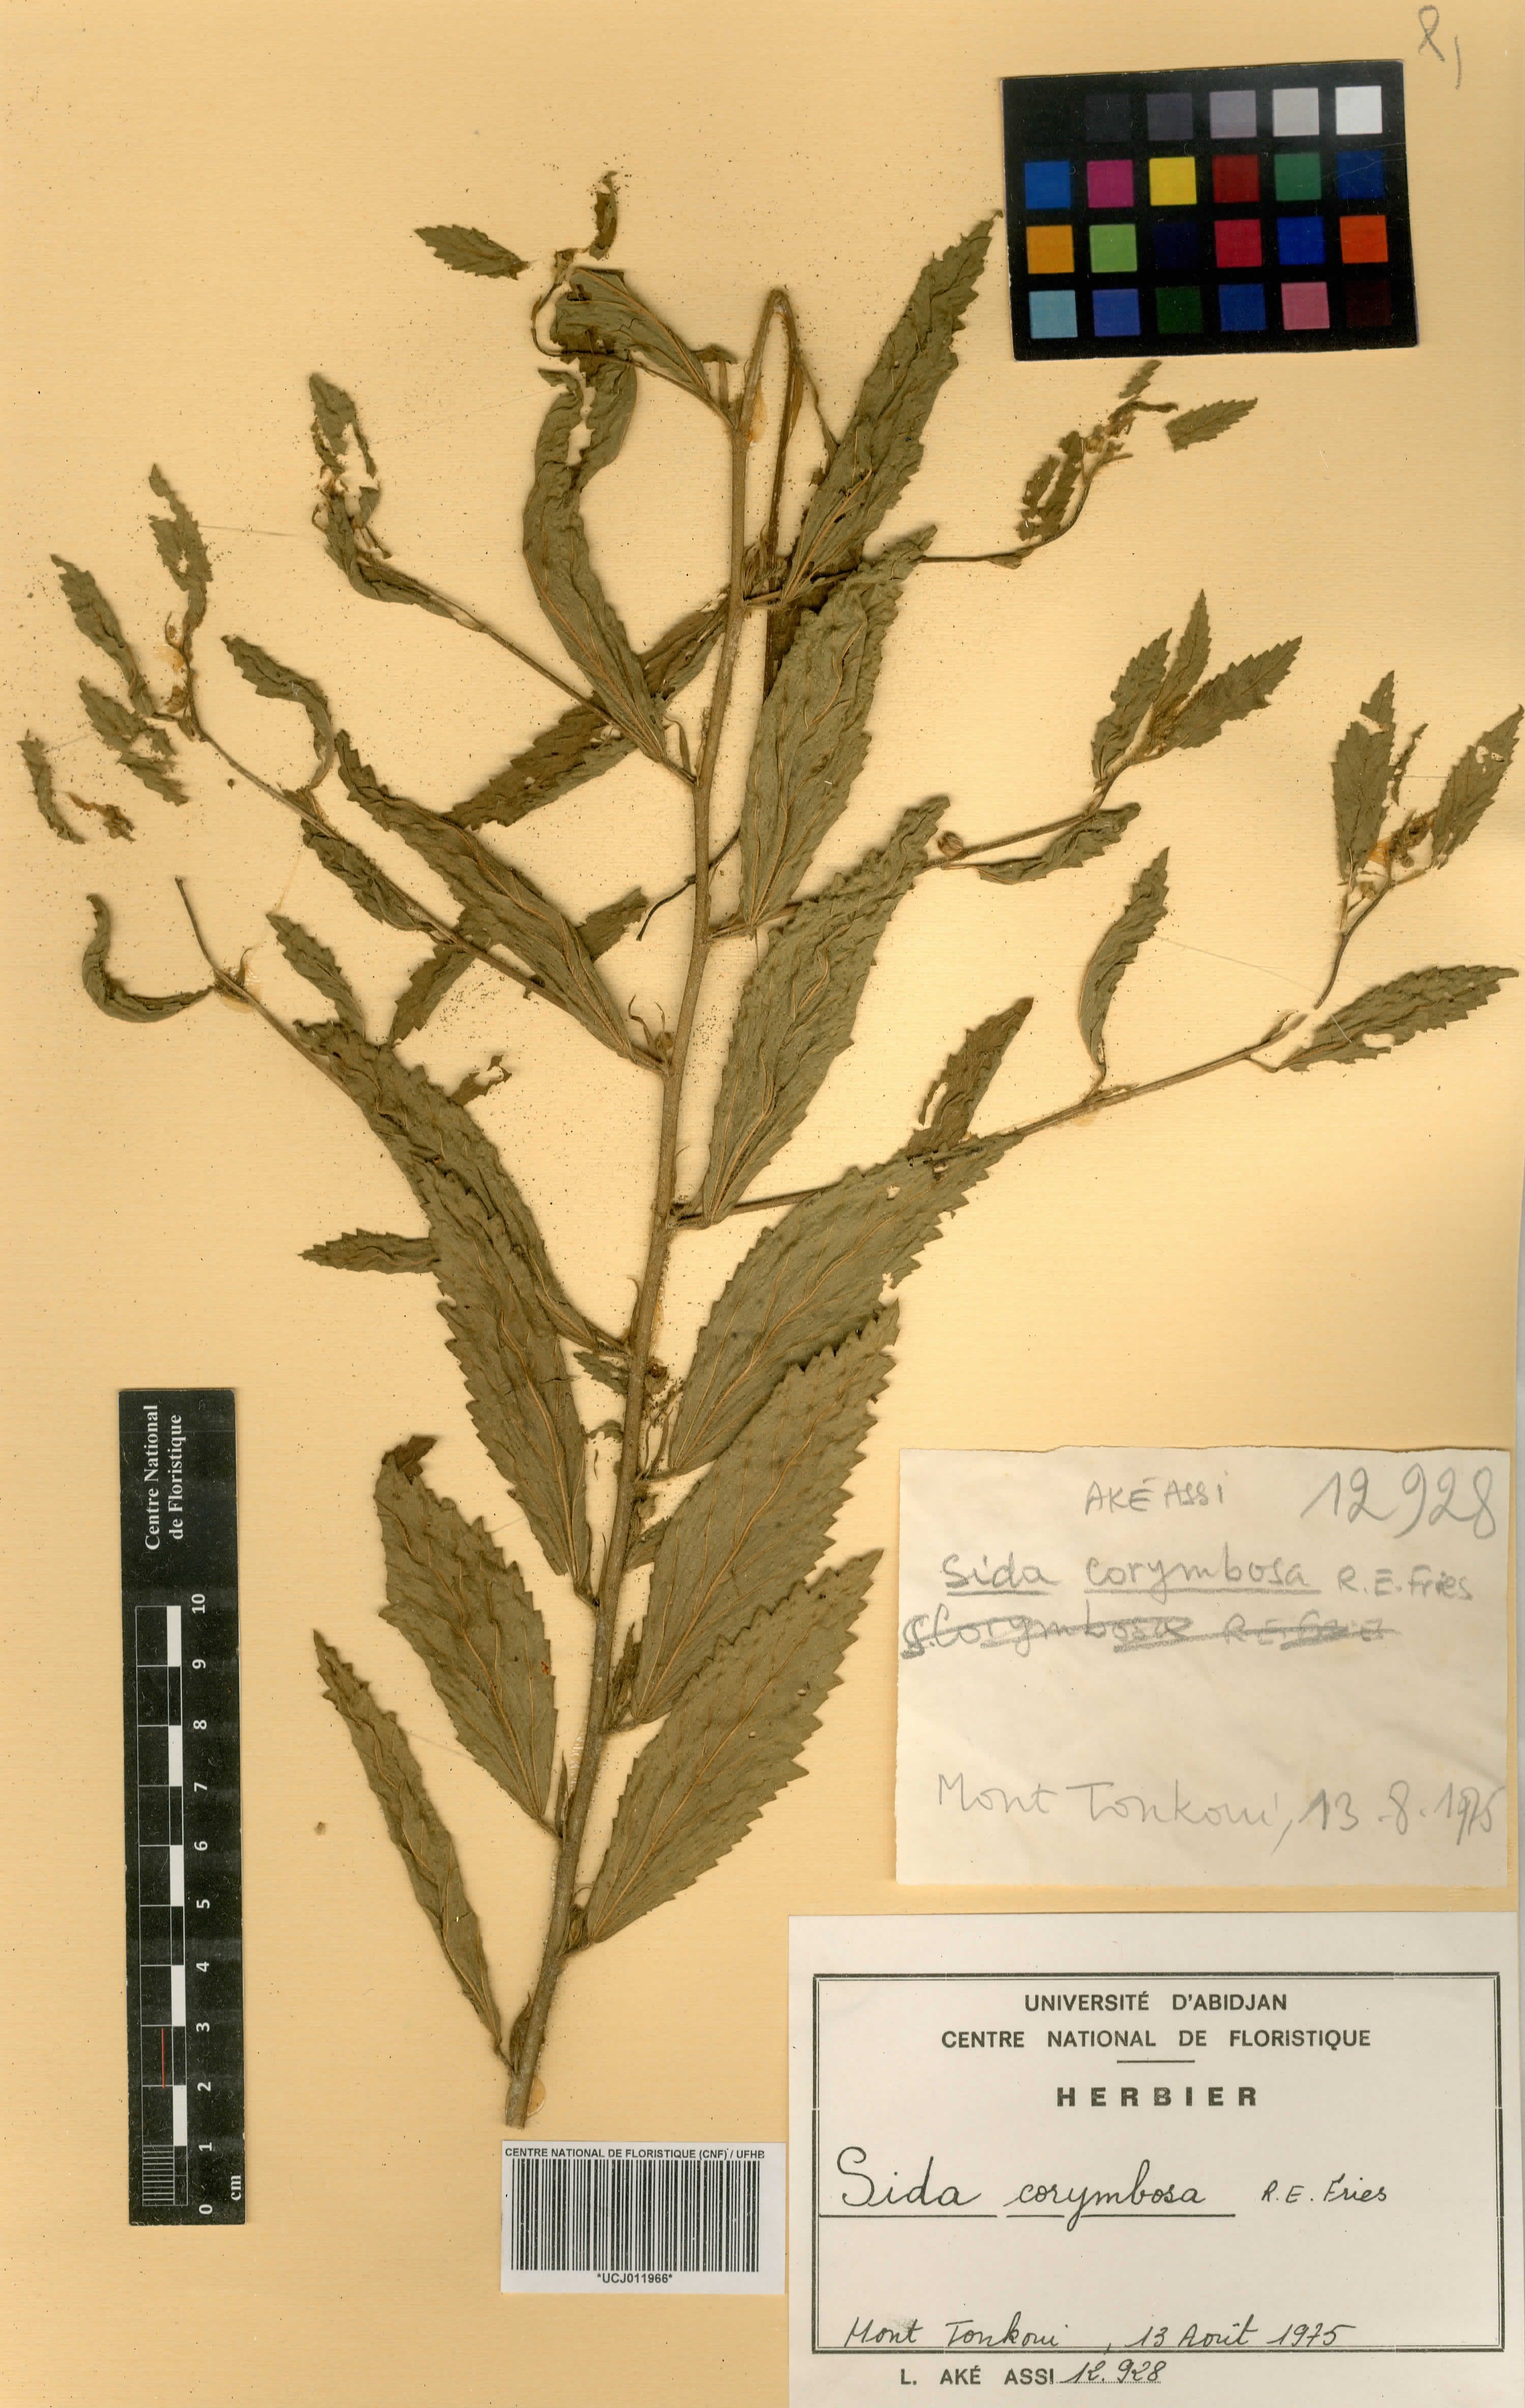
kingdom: Plantae
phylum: Tracheophyta
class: Magnoliopsida
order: Malvales
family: Malvaceae
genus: Sida
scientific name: Sida collina
